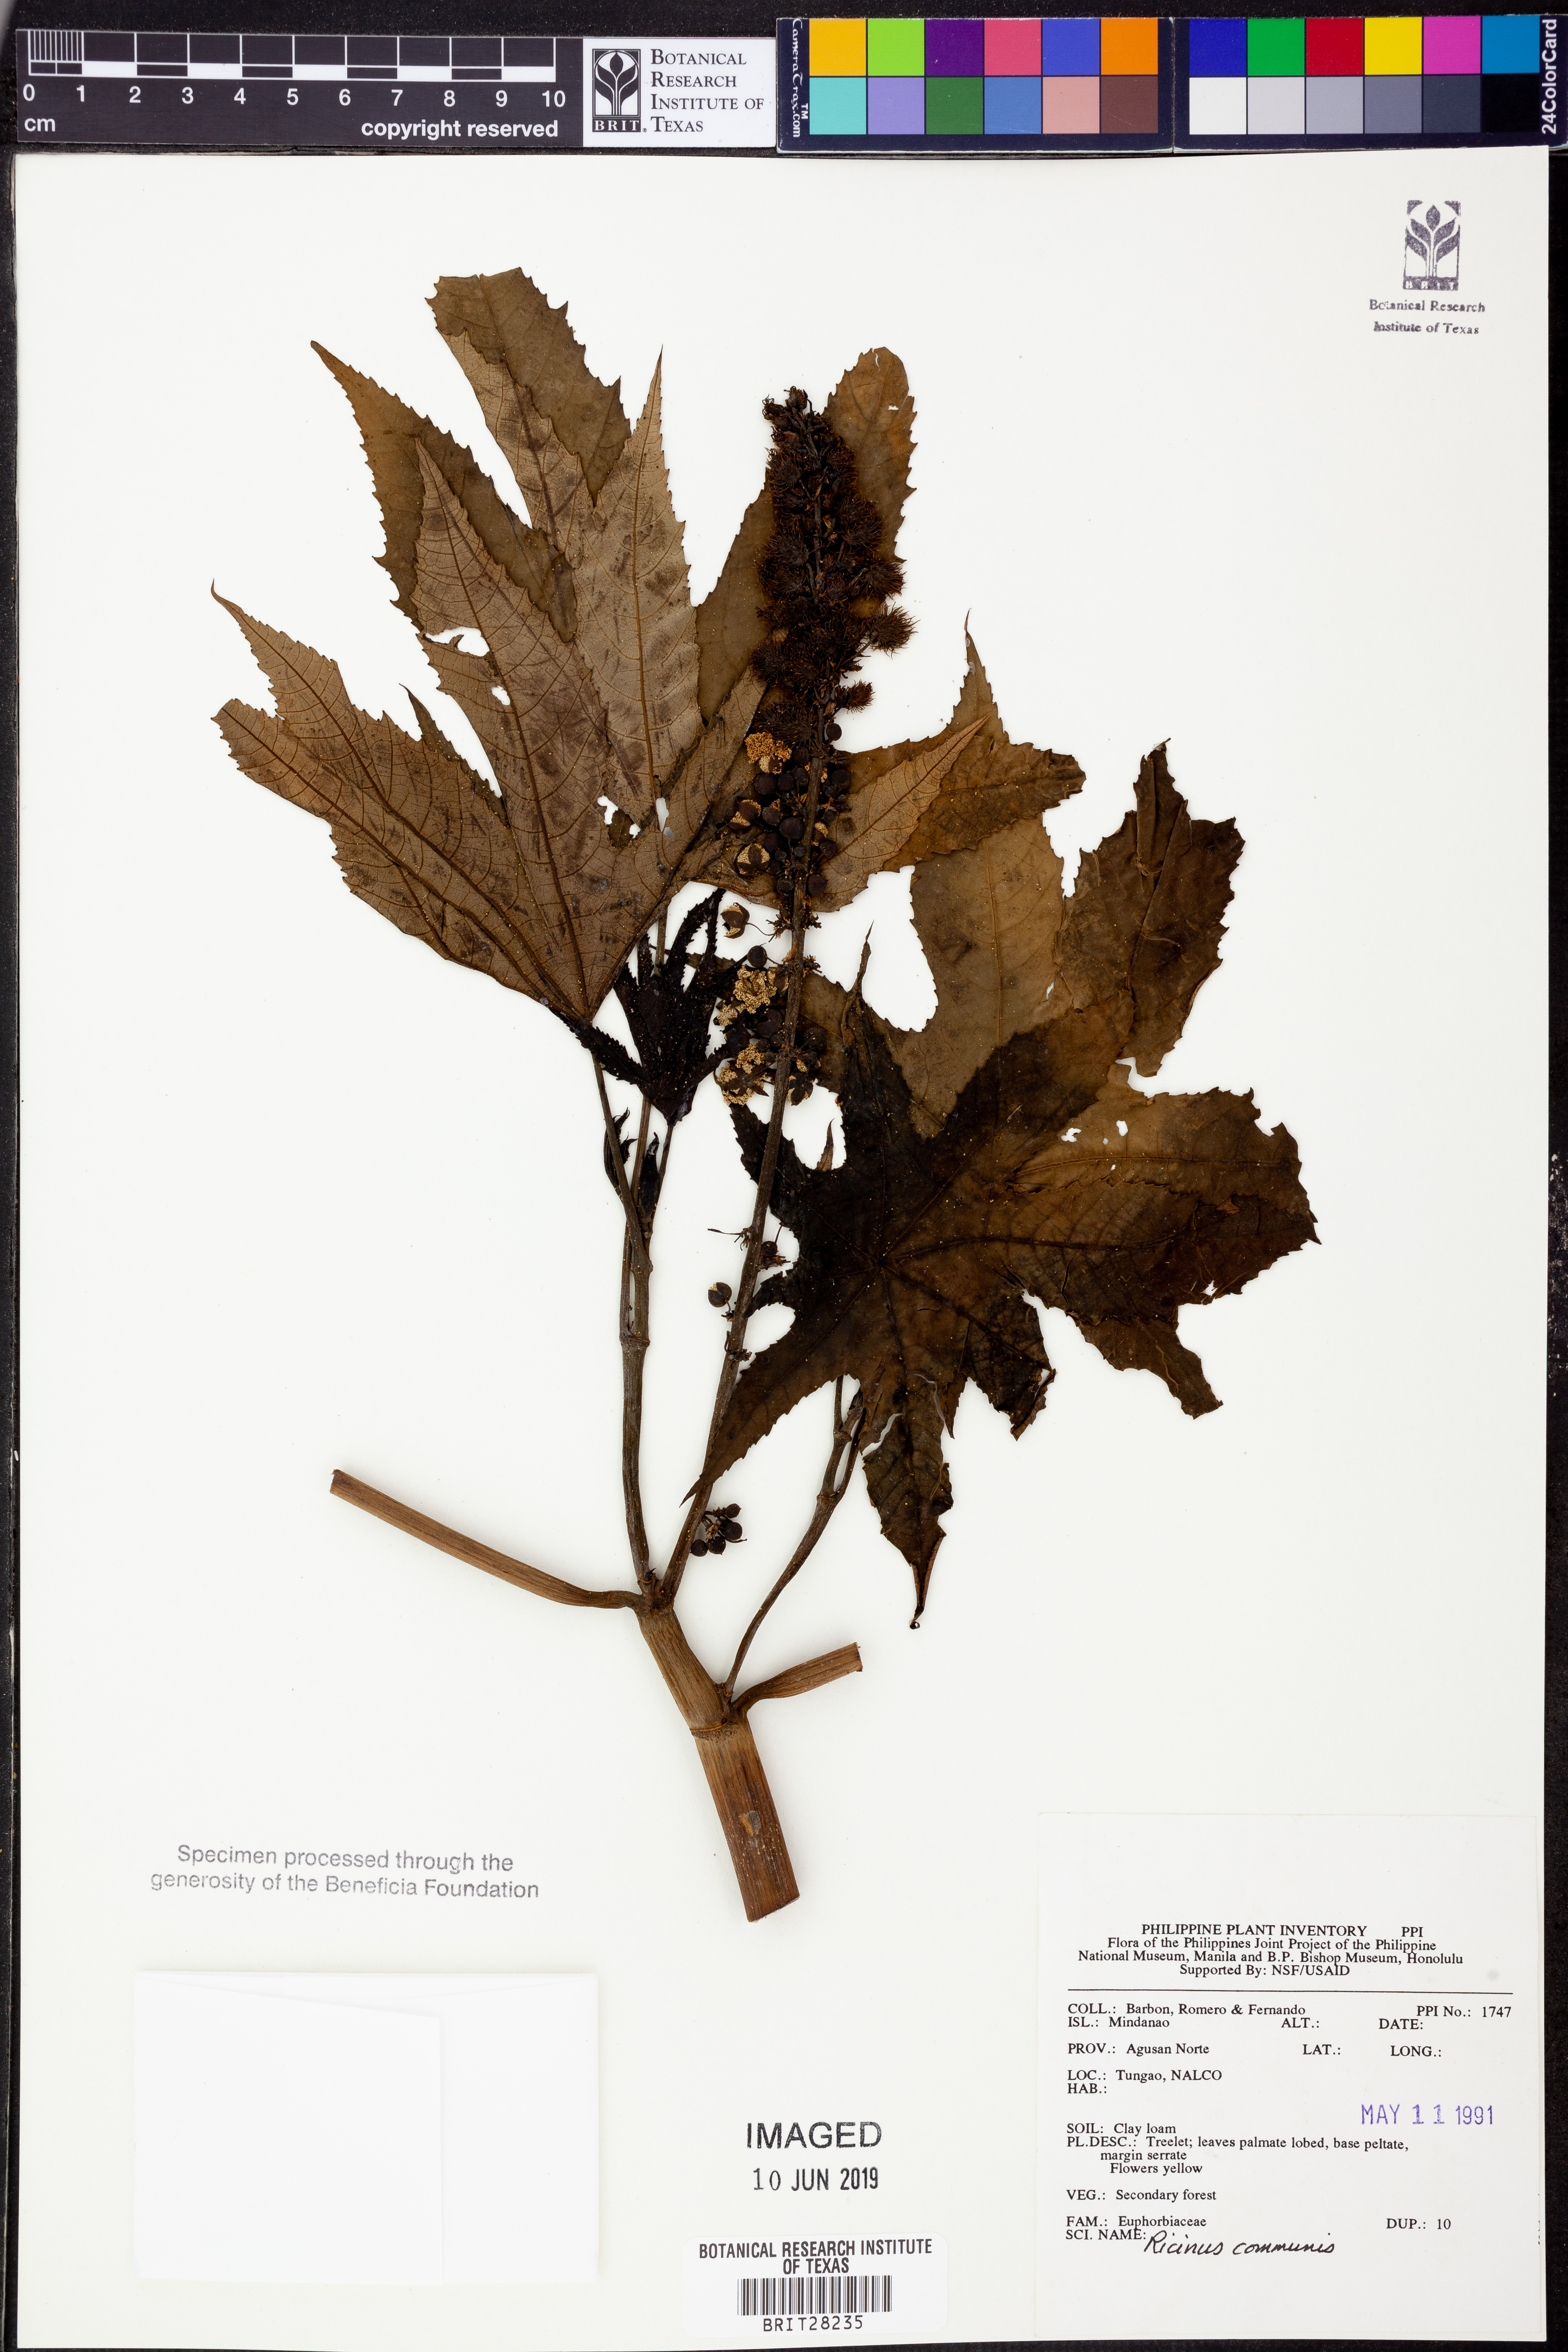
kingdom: Plantae
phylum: Tracheophyta
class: Magnoliopsida
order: Malpighiales
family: Euphorbiaceae
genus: Ricinus
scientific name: Ricinus communis
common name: Castor-oil-plant
